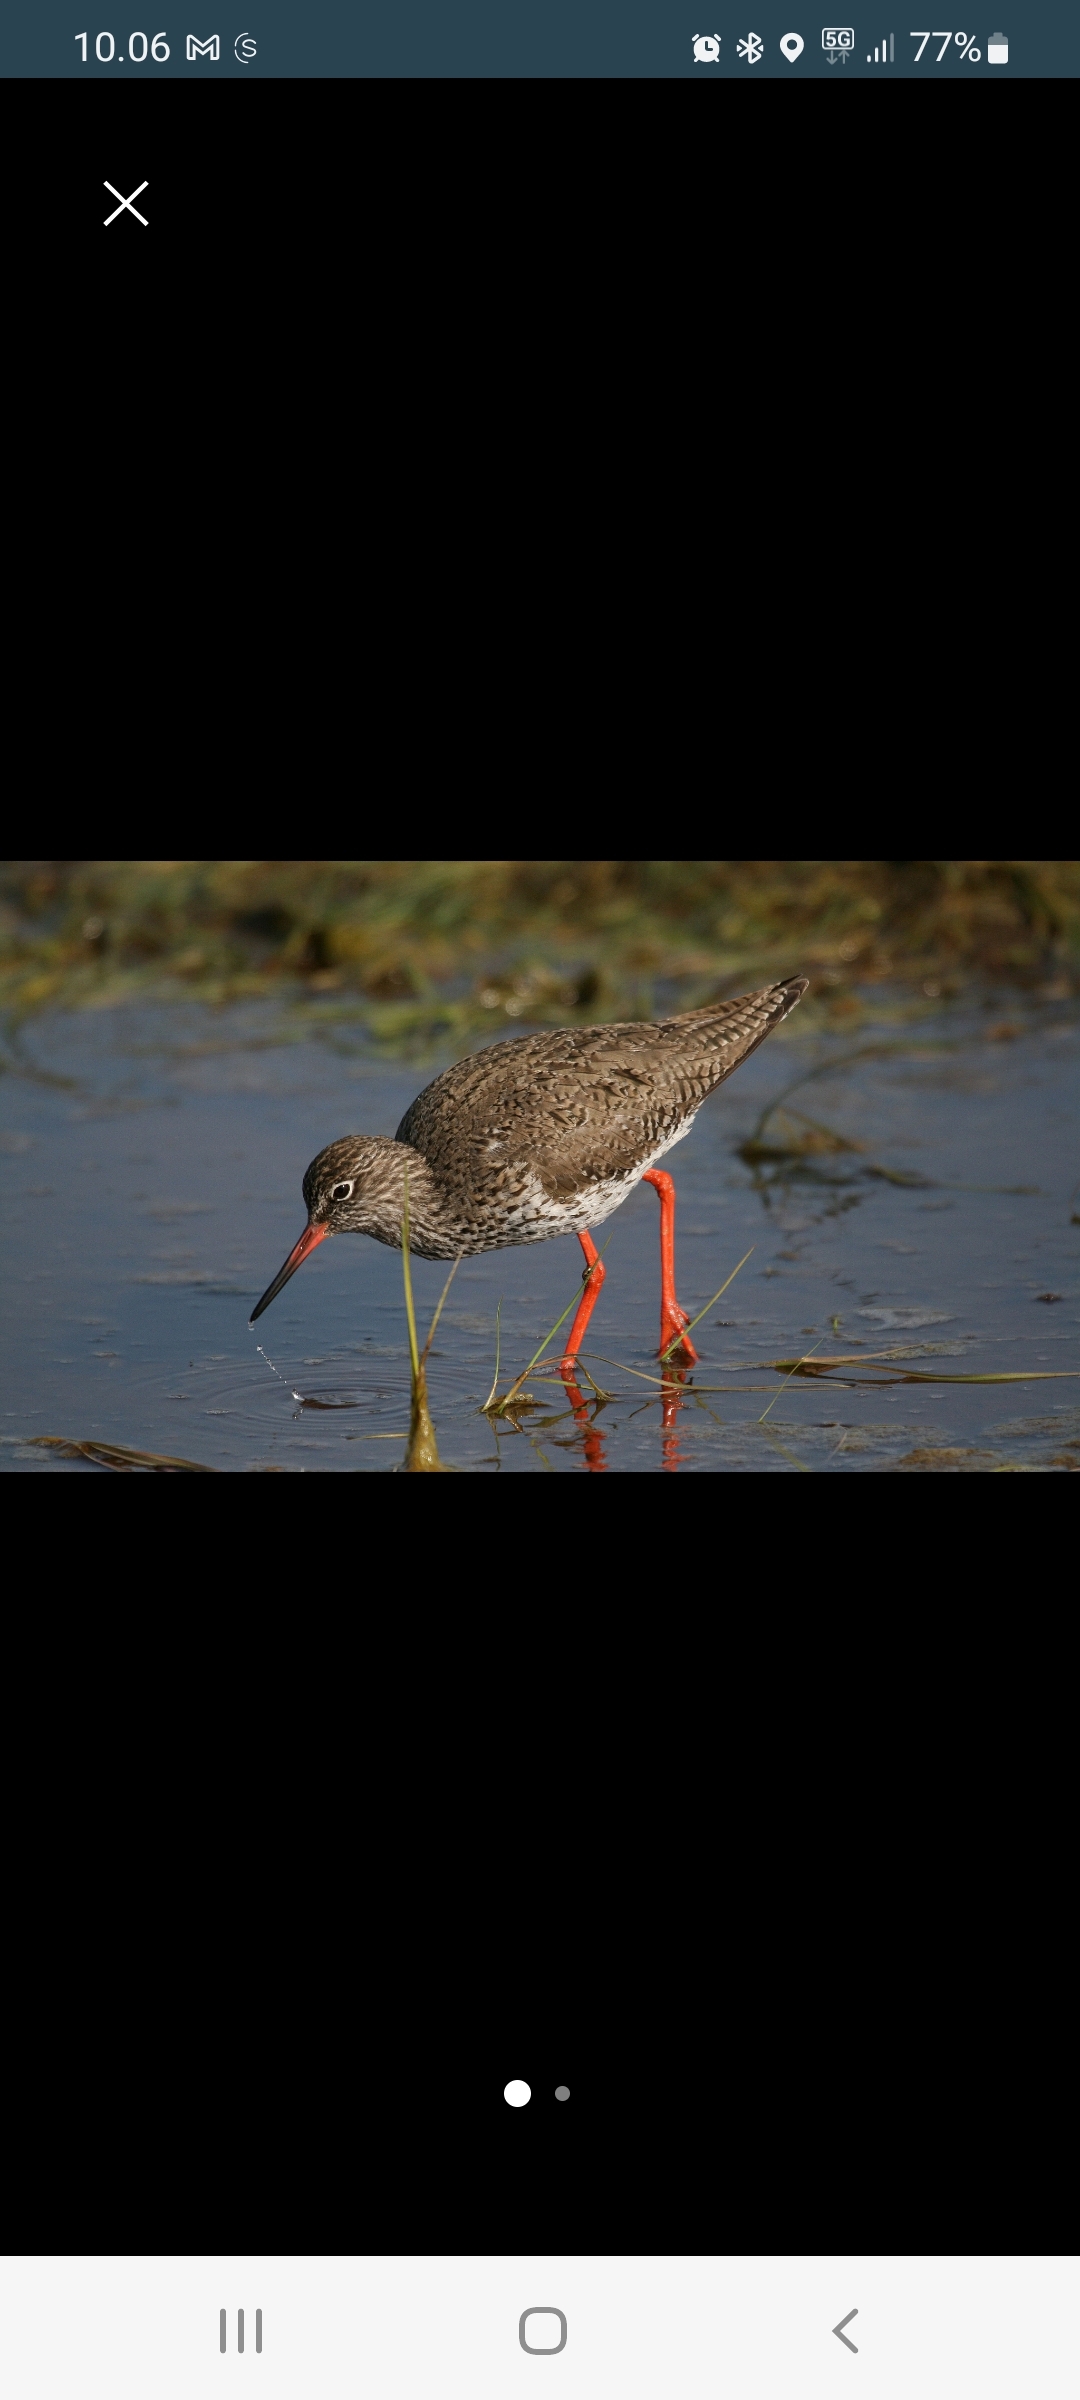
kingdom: Animalia
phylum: Chordata
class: Aves
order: Charadriiformes
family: Scolopacidae
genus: Tringa
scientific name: Tringa totanus
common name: Rødben
